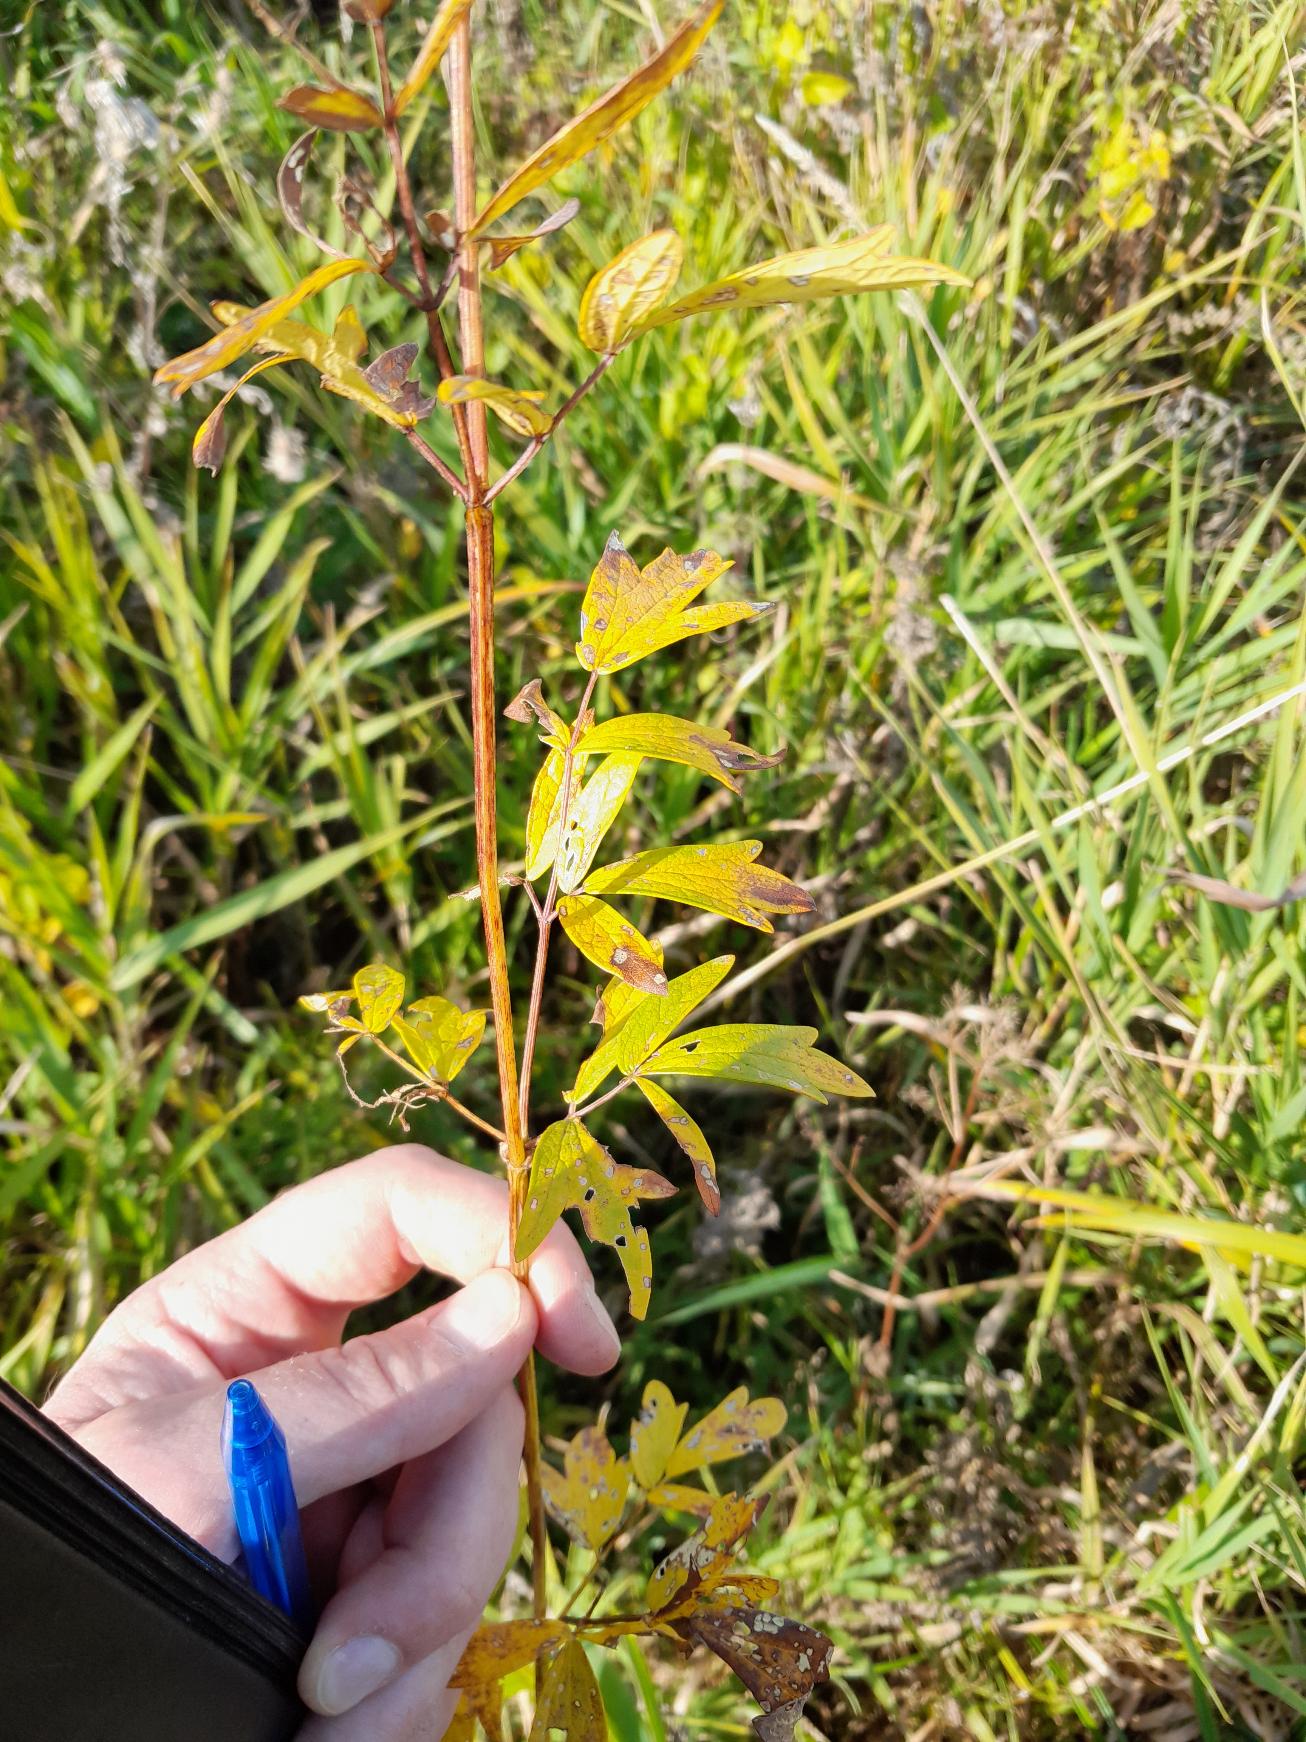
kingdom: Plantae
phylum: Tracheophyta
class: Magnoliopsida
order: Ranunculales
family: Ranunculaceae
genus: Thalictrum
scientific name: Thalictrum flavum
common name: Gul frøstjerne
